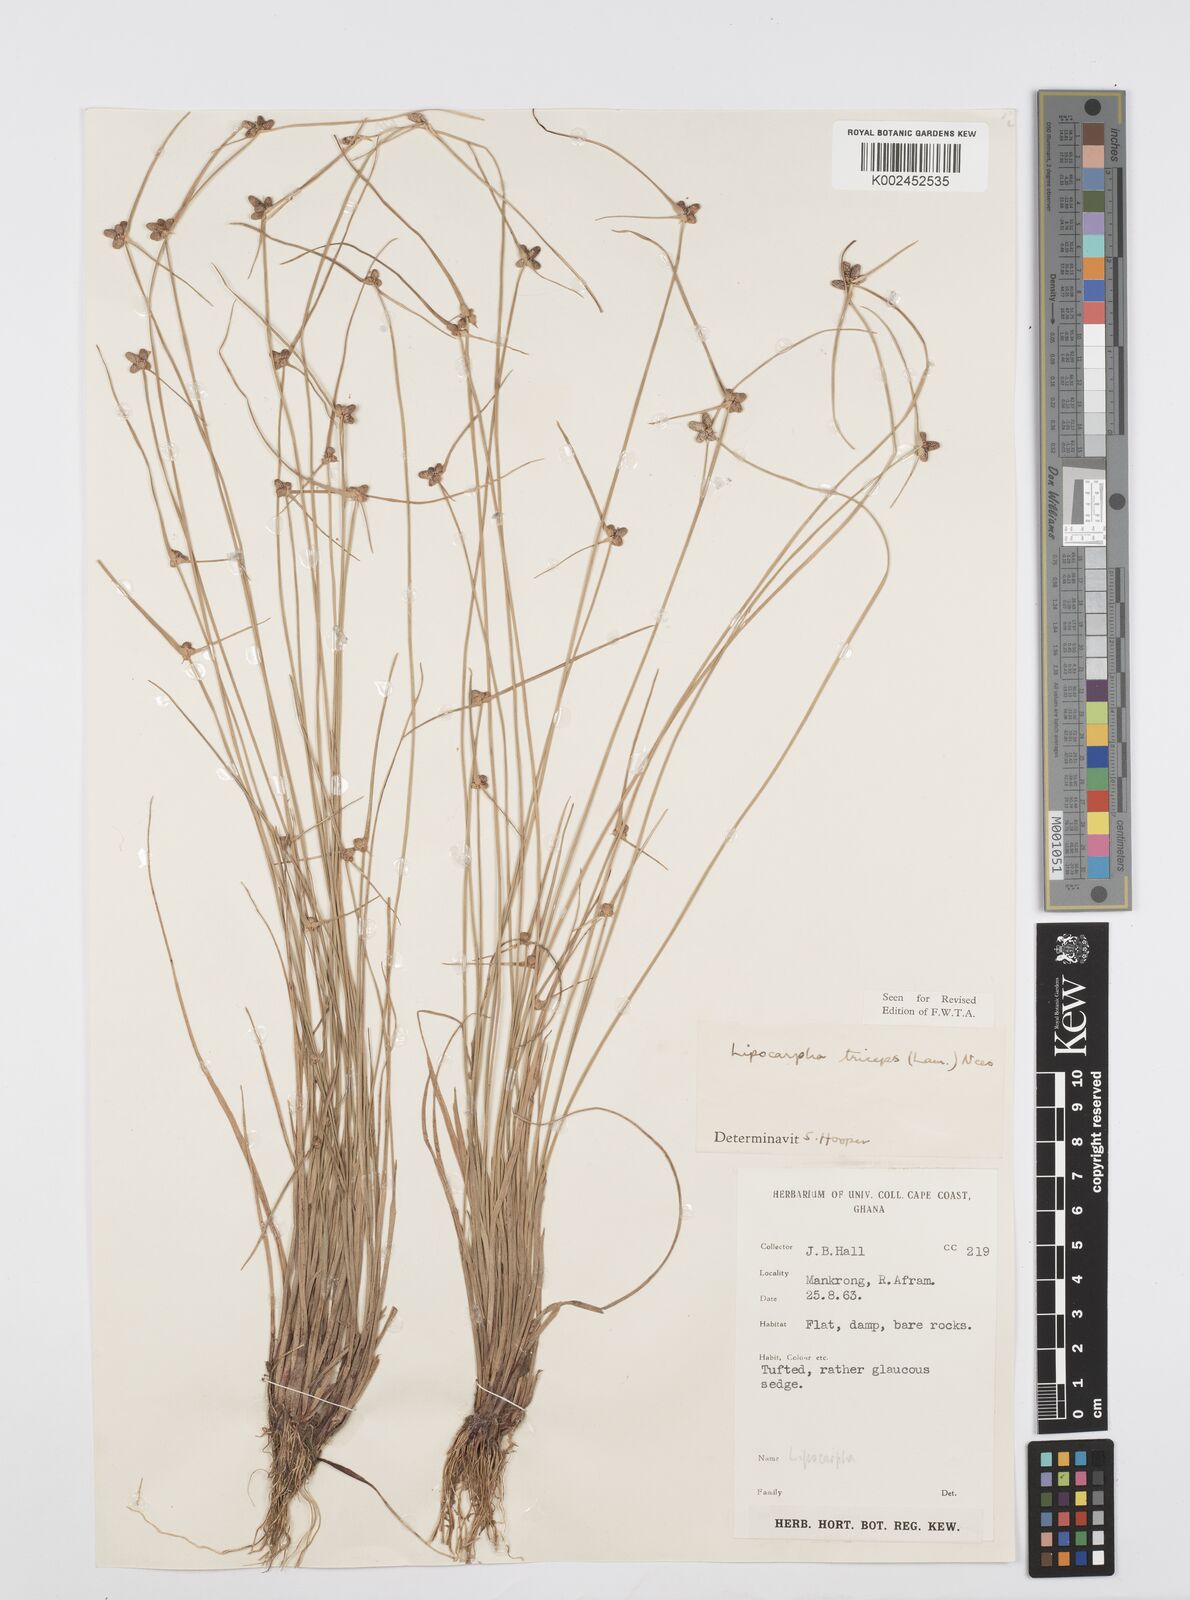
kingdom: Plantae
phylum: Tracheophyta
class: Liliopsida
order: Poales
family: Cyperaceae
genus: Cyperus
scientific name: Cyperus filiformis
